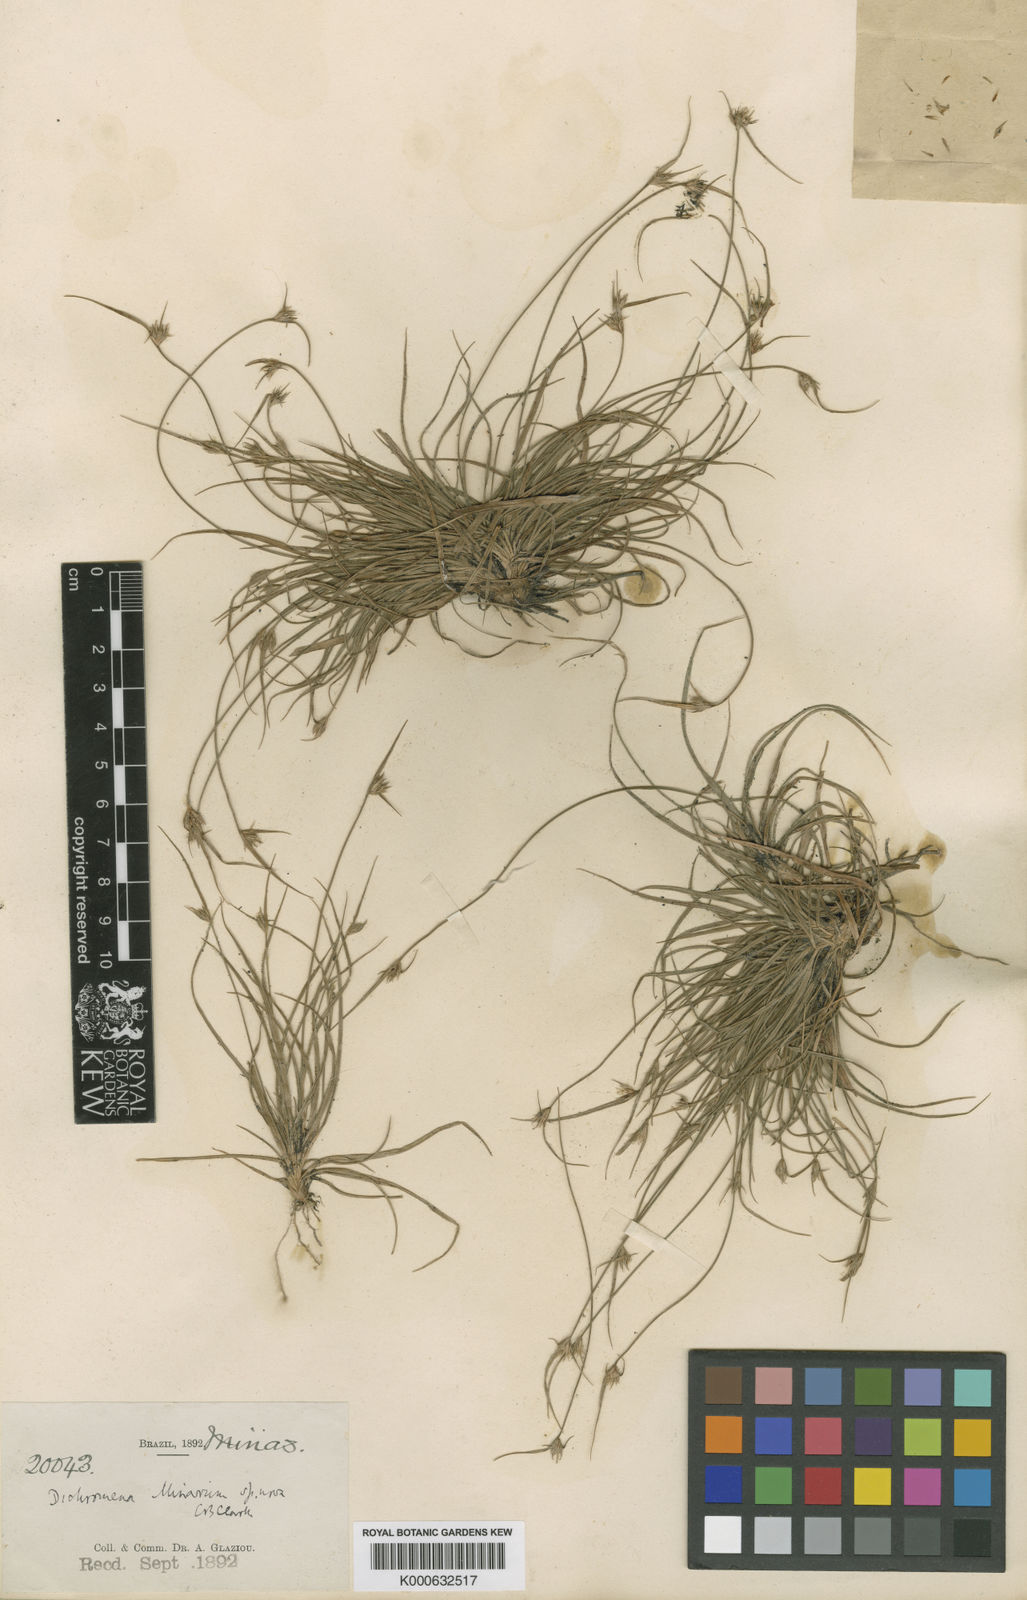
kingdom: Plantae
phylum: Tracheophyta
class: Liliopsida
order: Poales
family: Cyperaceae
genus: Rhynchospora
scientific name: Rhynchospora terminalis
